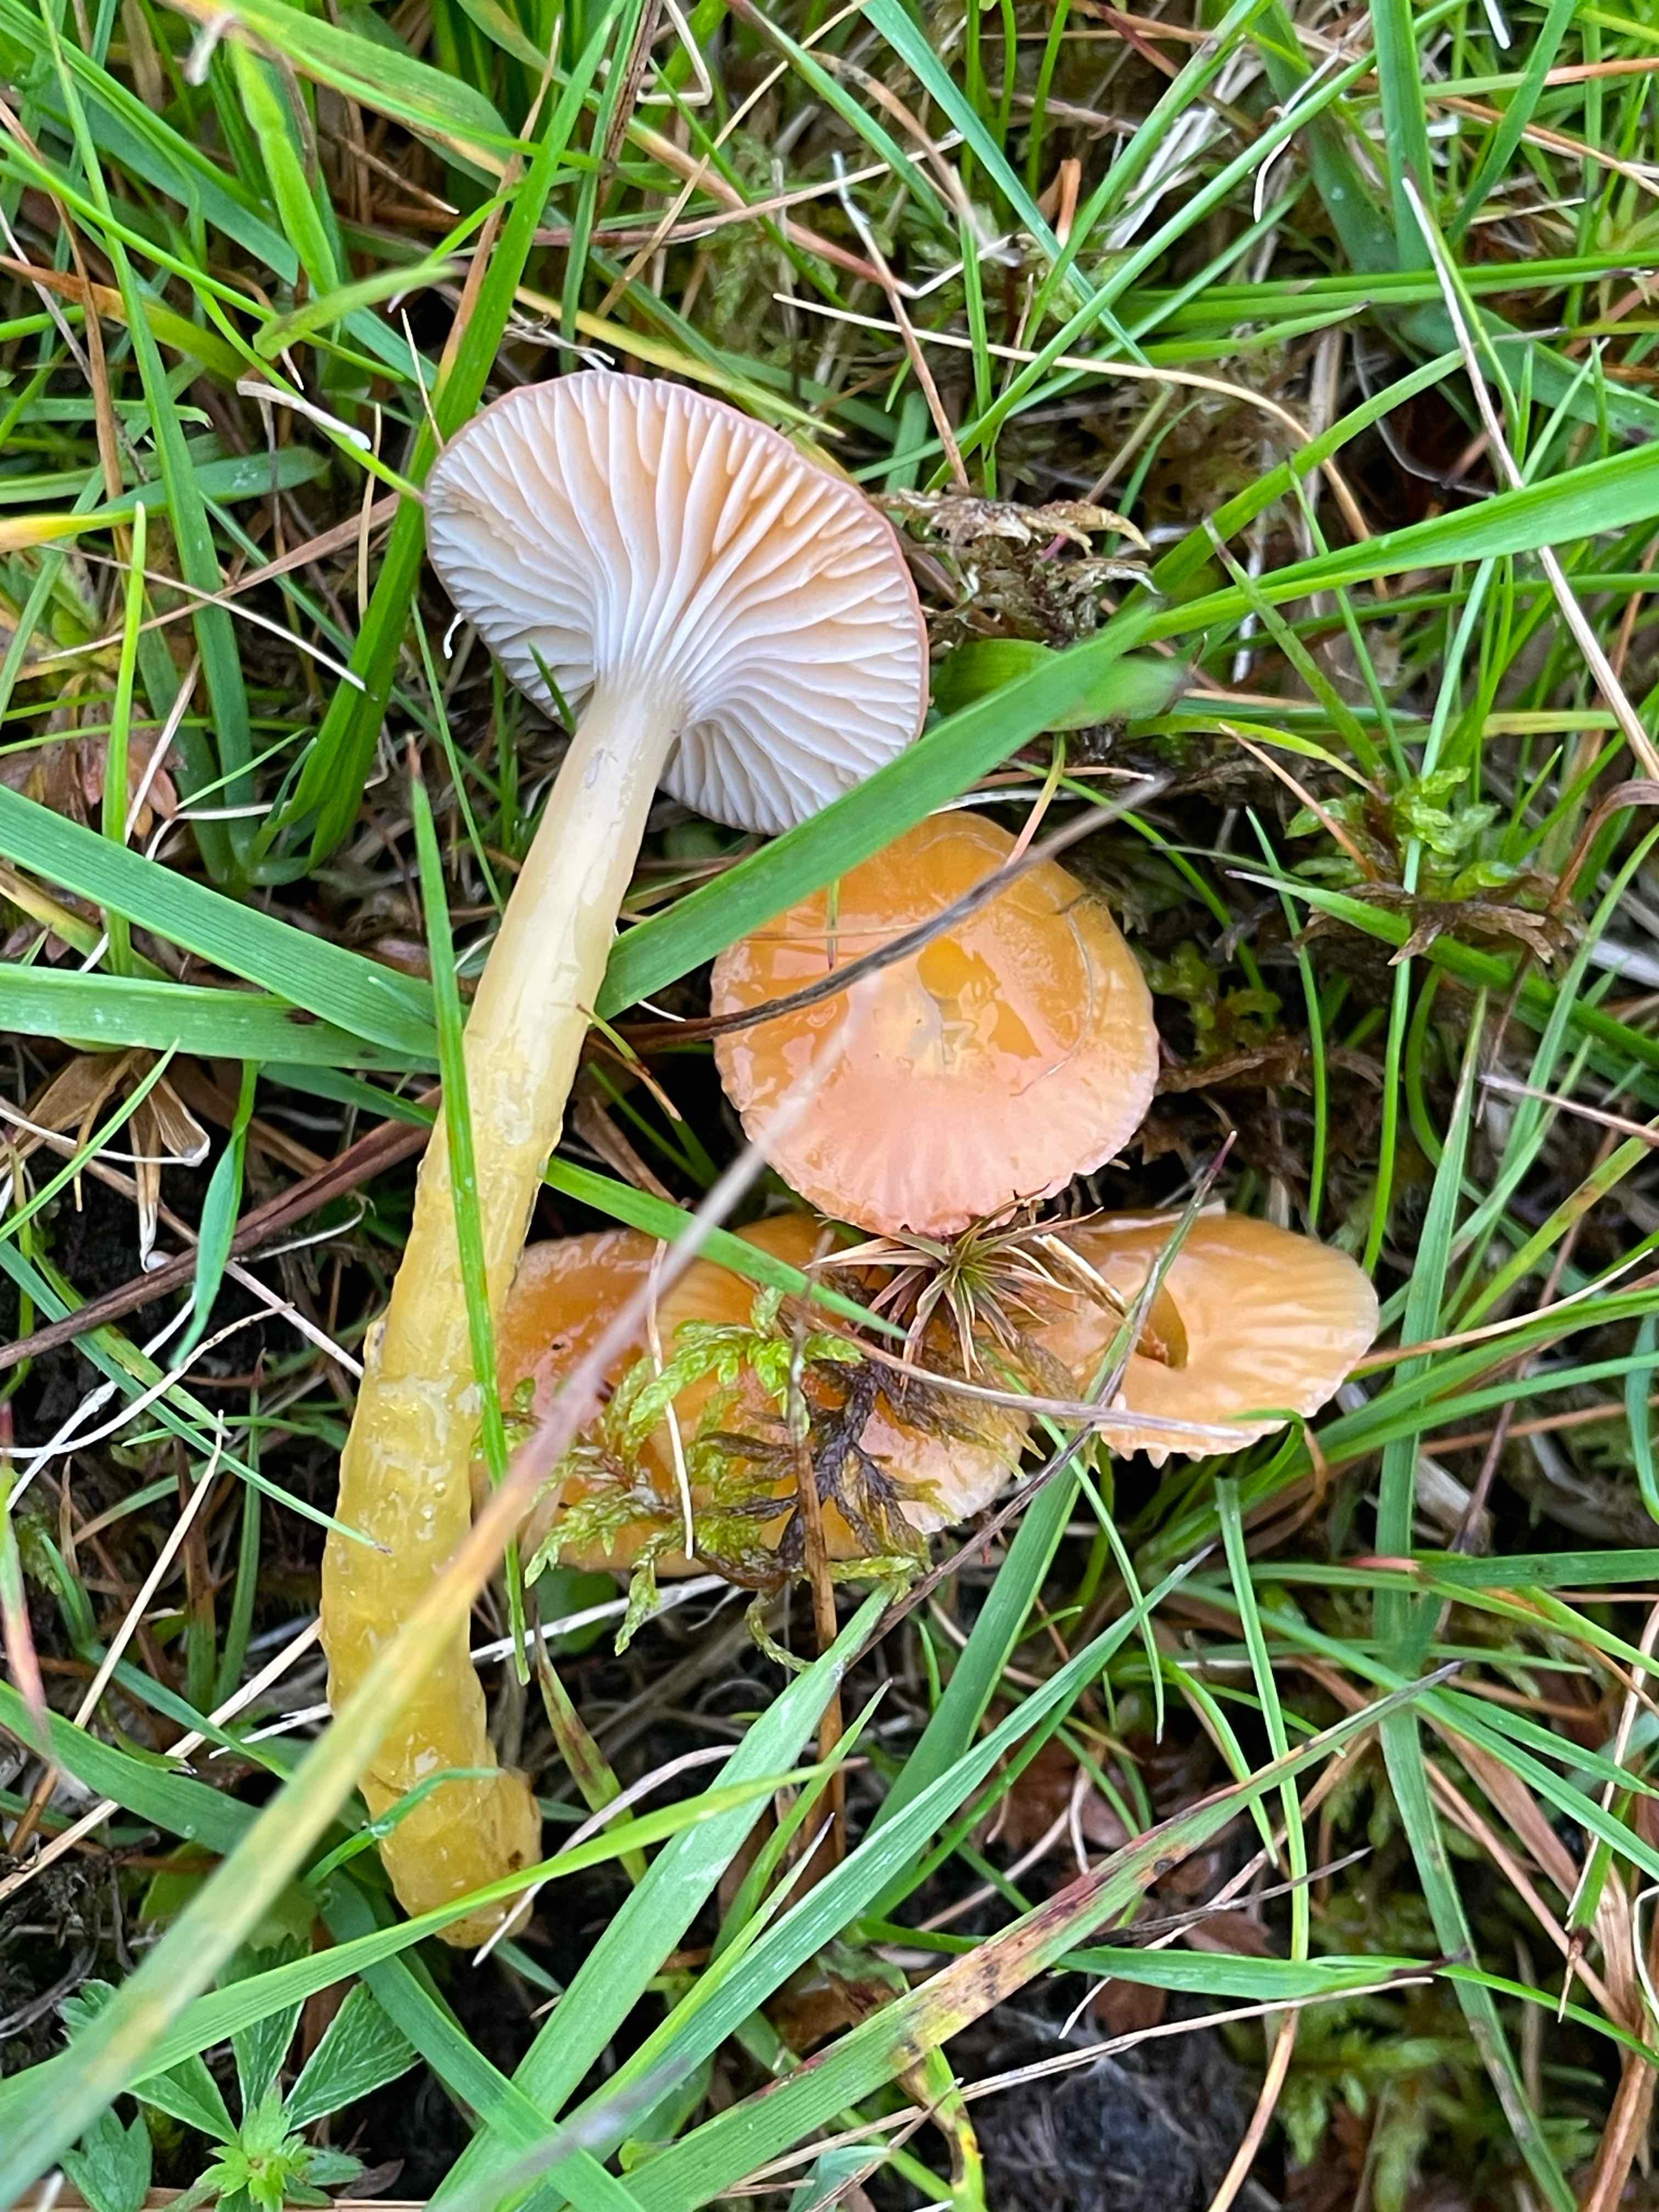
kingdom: Fungi
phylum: Basidiomycota
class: Agaricomycetes
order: Agaricales
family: Hygrophoraceae
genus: Gliophorus
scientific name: Gliophorus laetus
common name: brusk-vokshat
